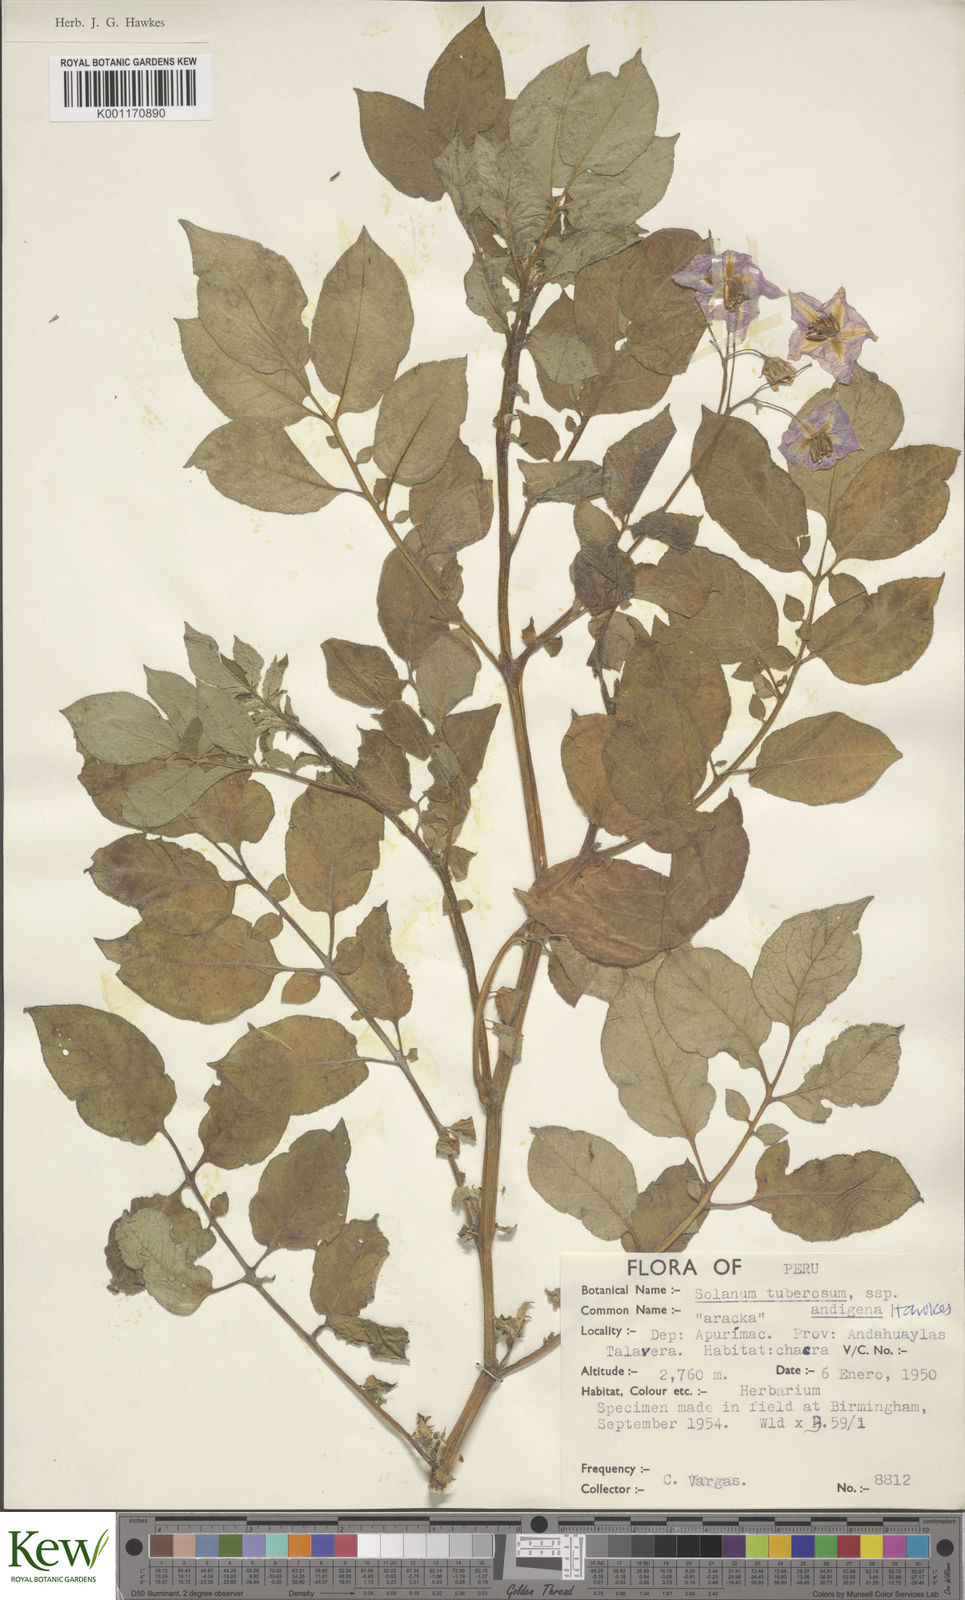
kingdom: Plantae
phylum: Tracheophyta
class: Magnoliopsida
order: Solanales
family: Solanaceae
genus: Solanum
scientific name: Solanum tuberosum
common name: Potato
